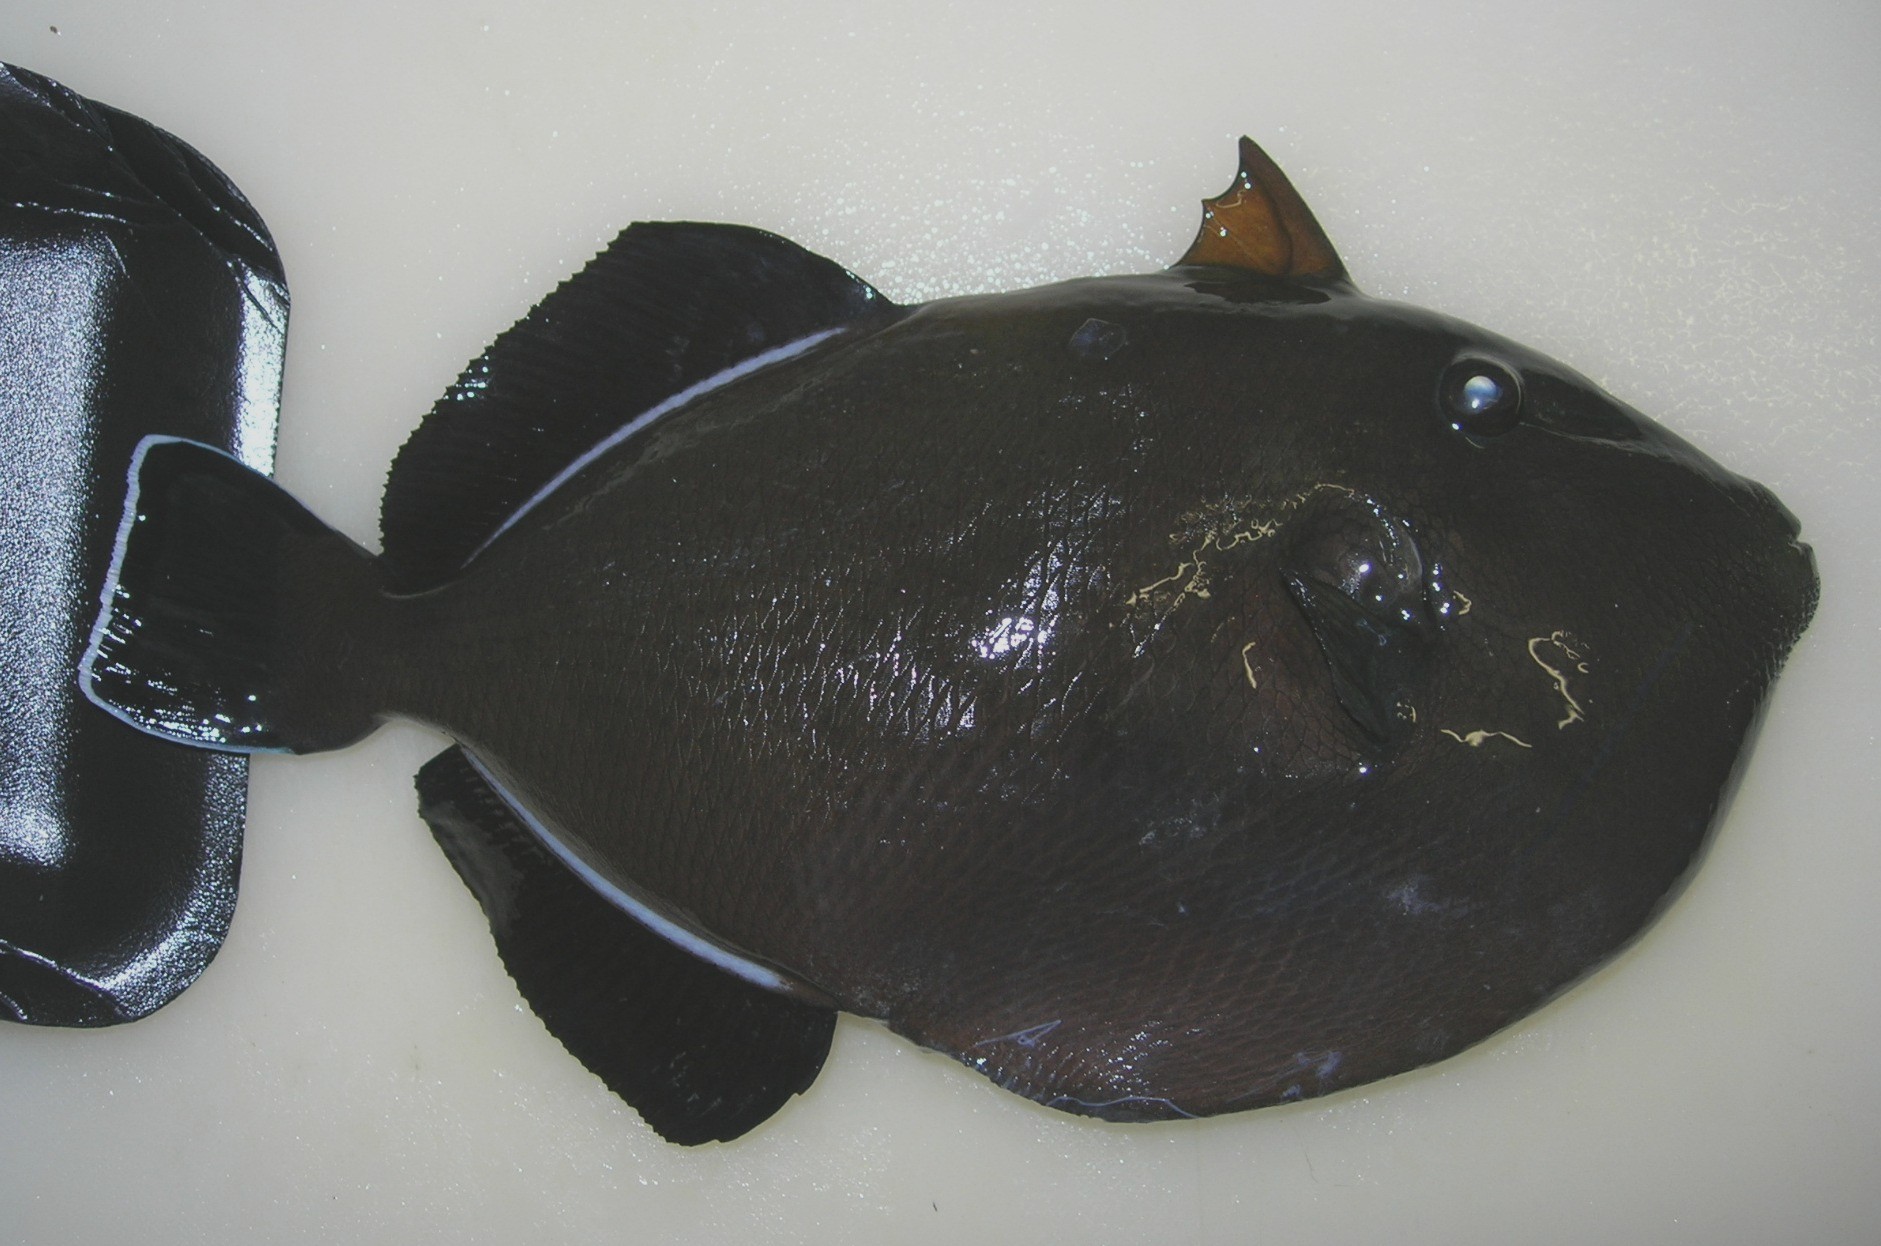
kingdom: Animalia
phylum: Chordata
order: Tetraodontiformes
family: Balistidae
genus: Melichthys
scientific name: Melichthys indicus
